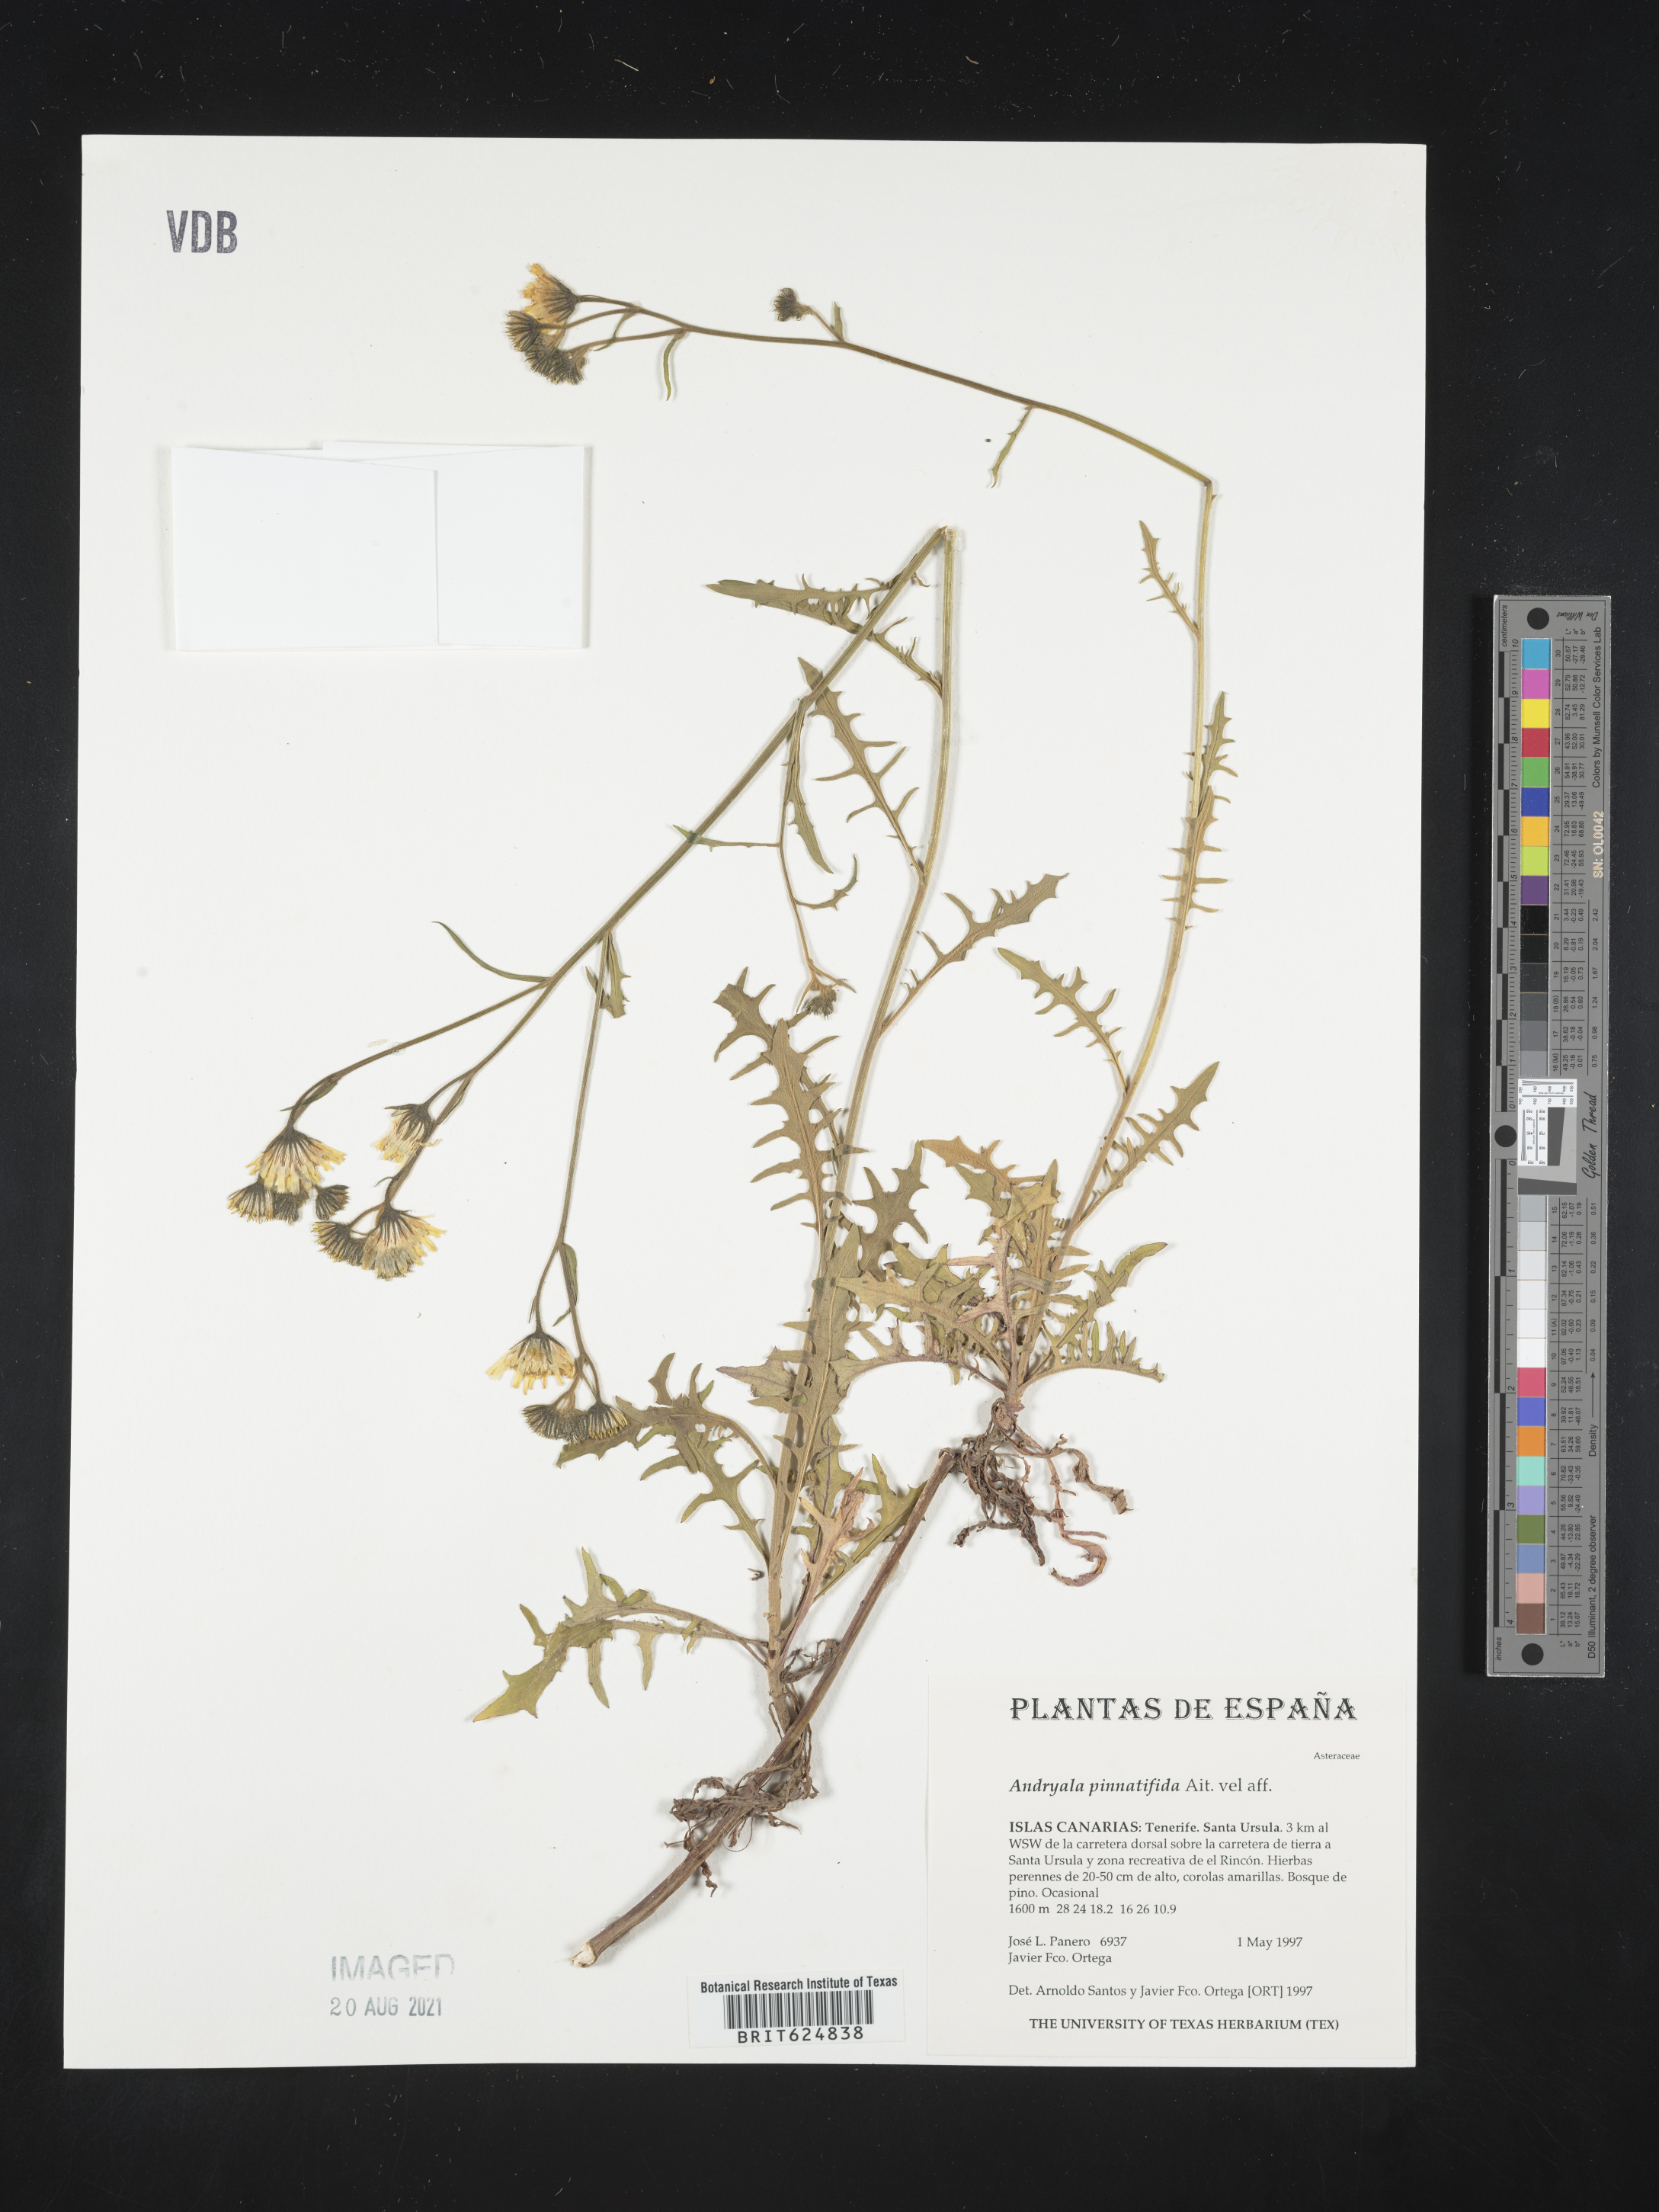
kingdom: Plantae
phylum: Tracheophyta
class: Magnoliopsida
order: Asterales
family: Asteraceae
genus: Andryala
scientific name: Andryala pinnatifida
